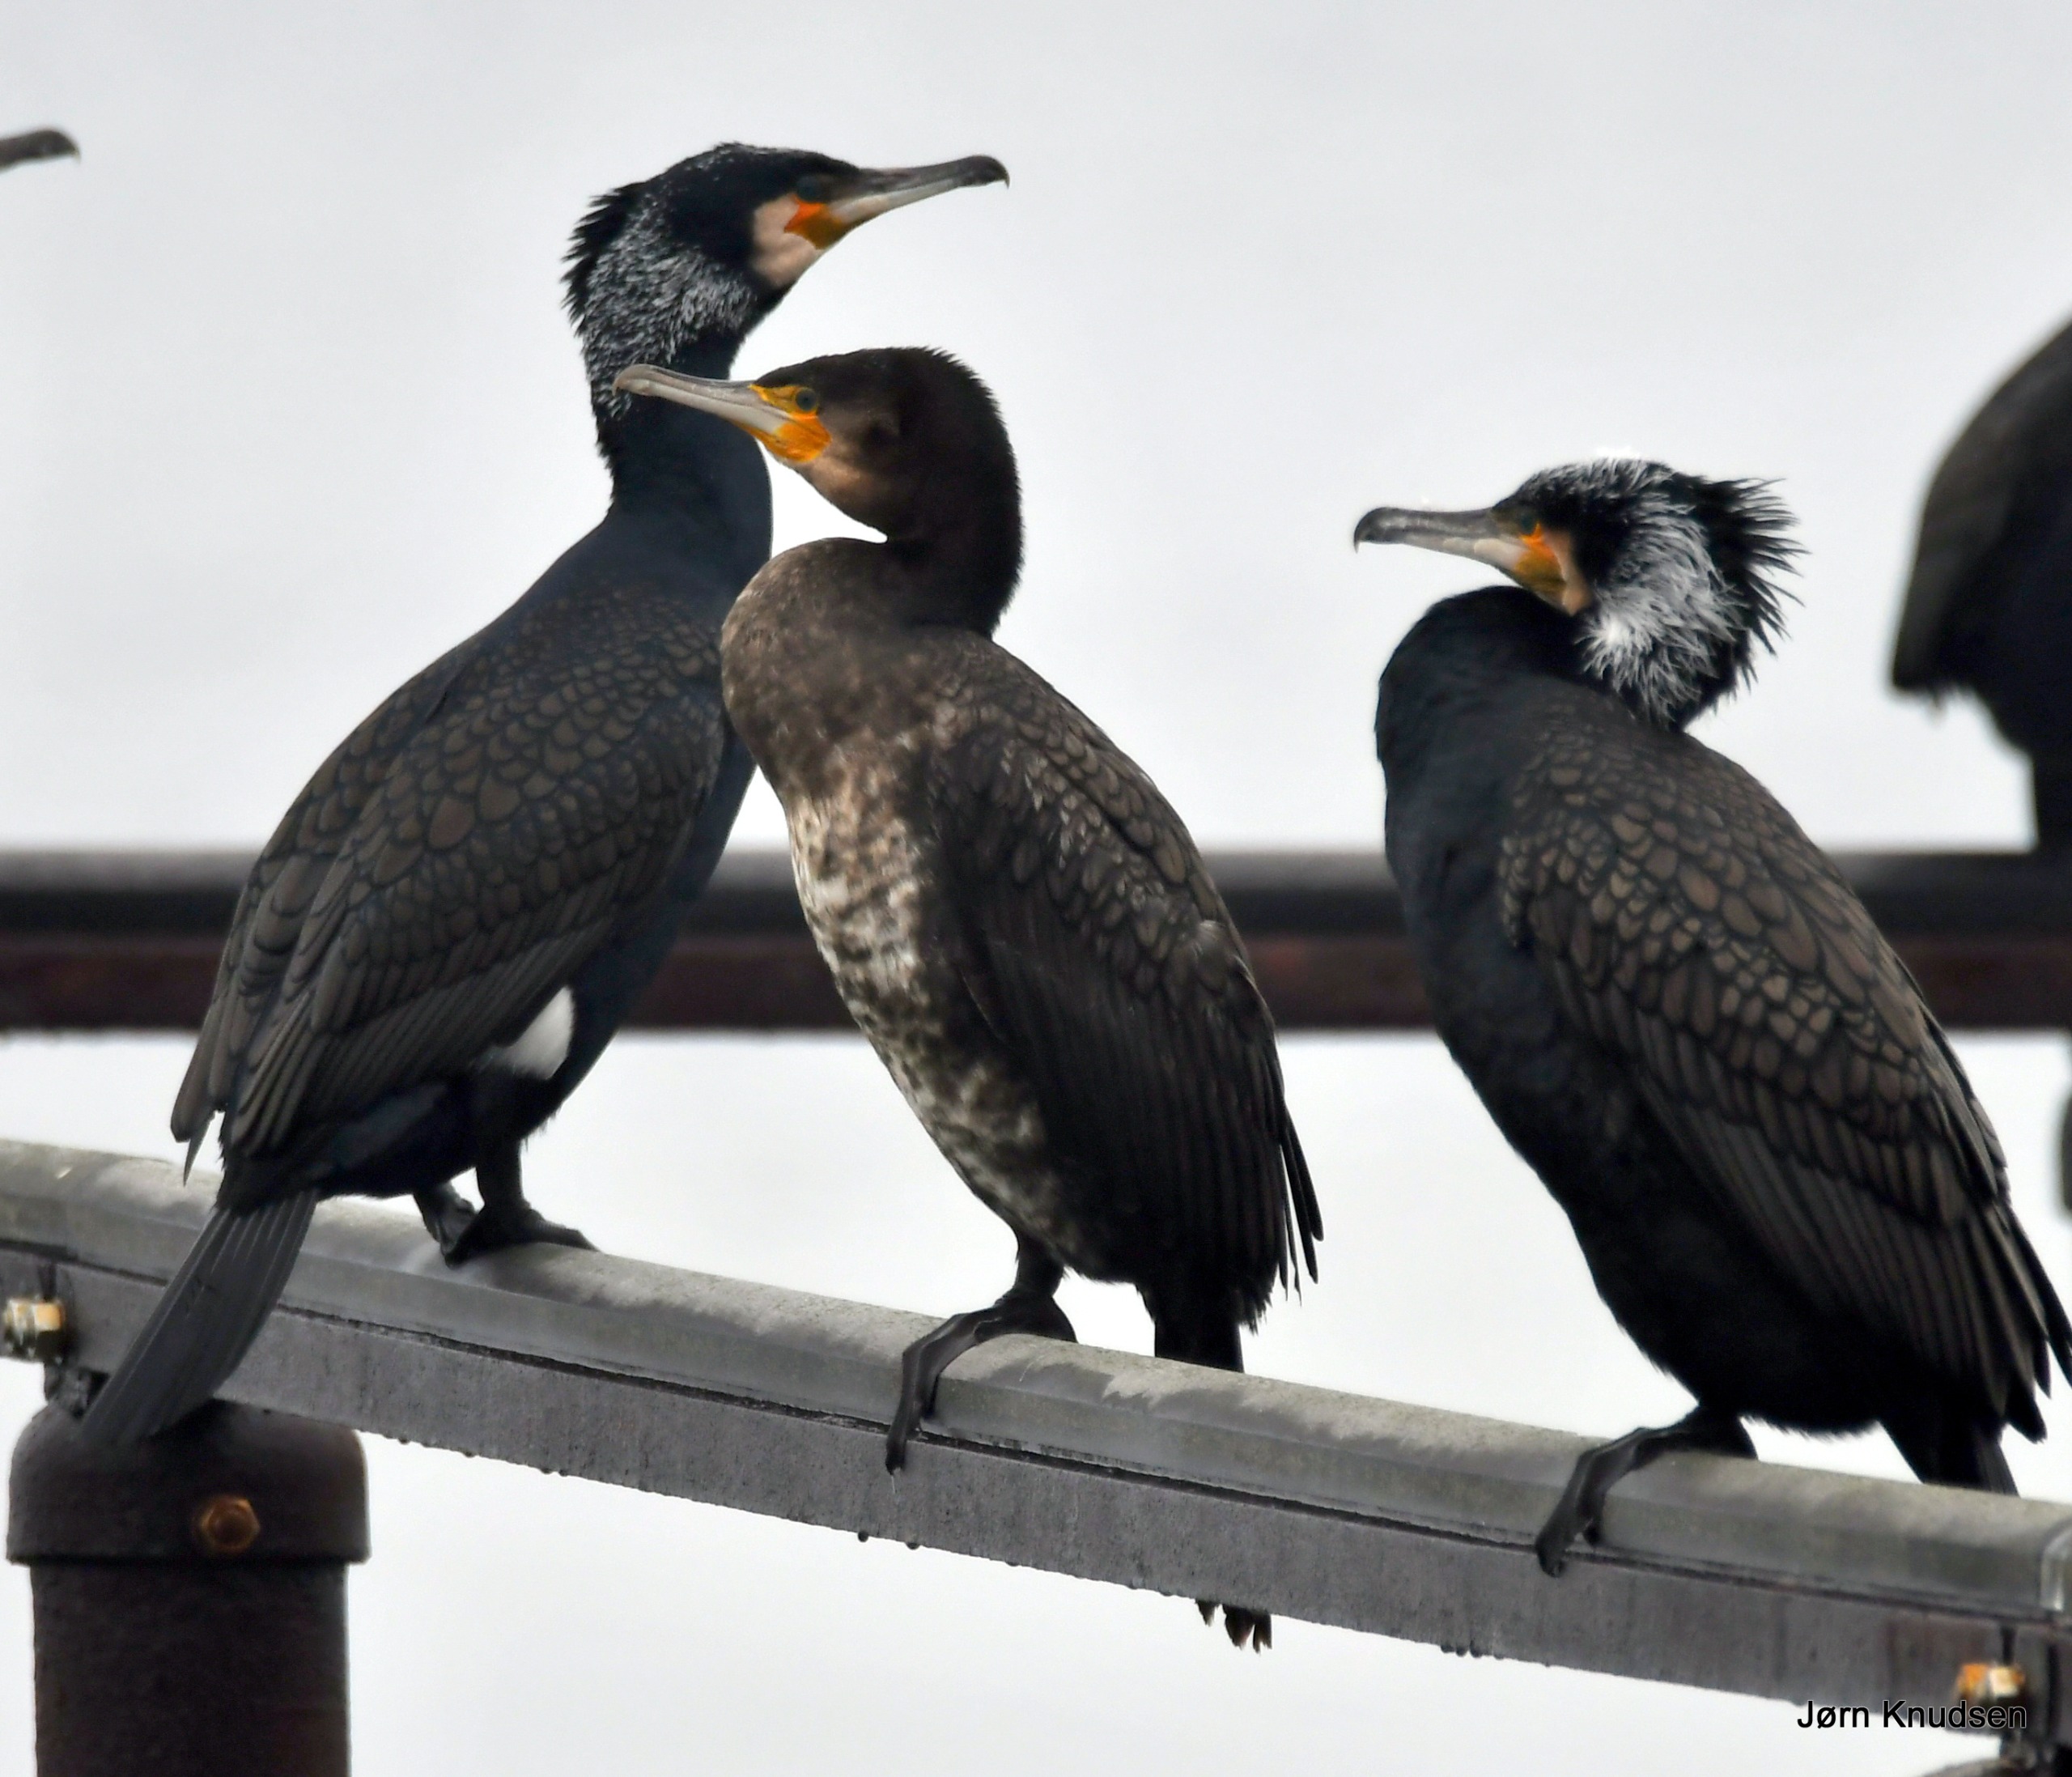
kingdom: Animalia
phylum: Chordata
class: Aves
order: Suliformes
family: Phalacrocoracidae
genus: Phalacrocorax
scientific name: Phalacrocorax carbo
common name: Skarv
